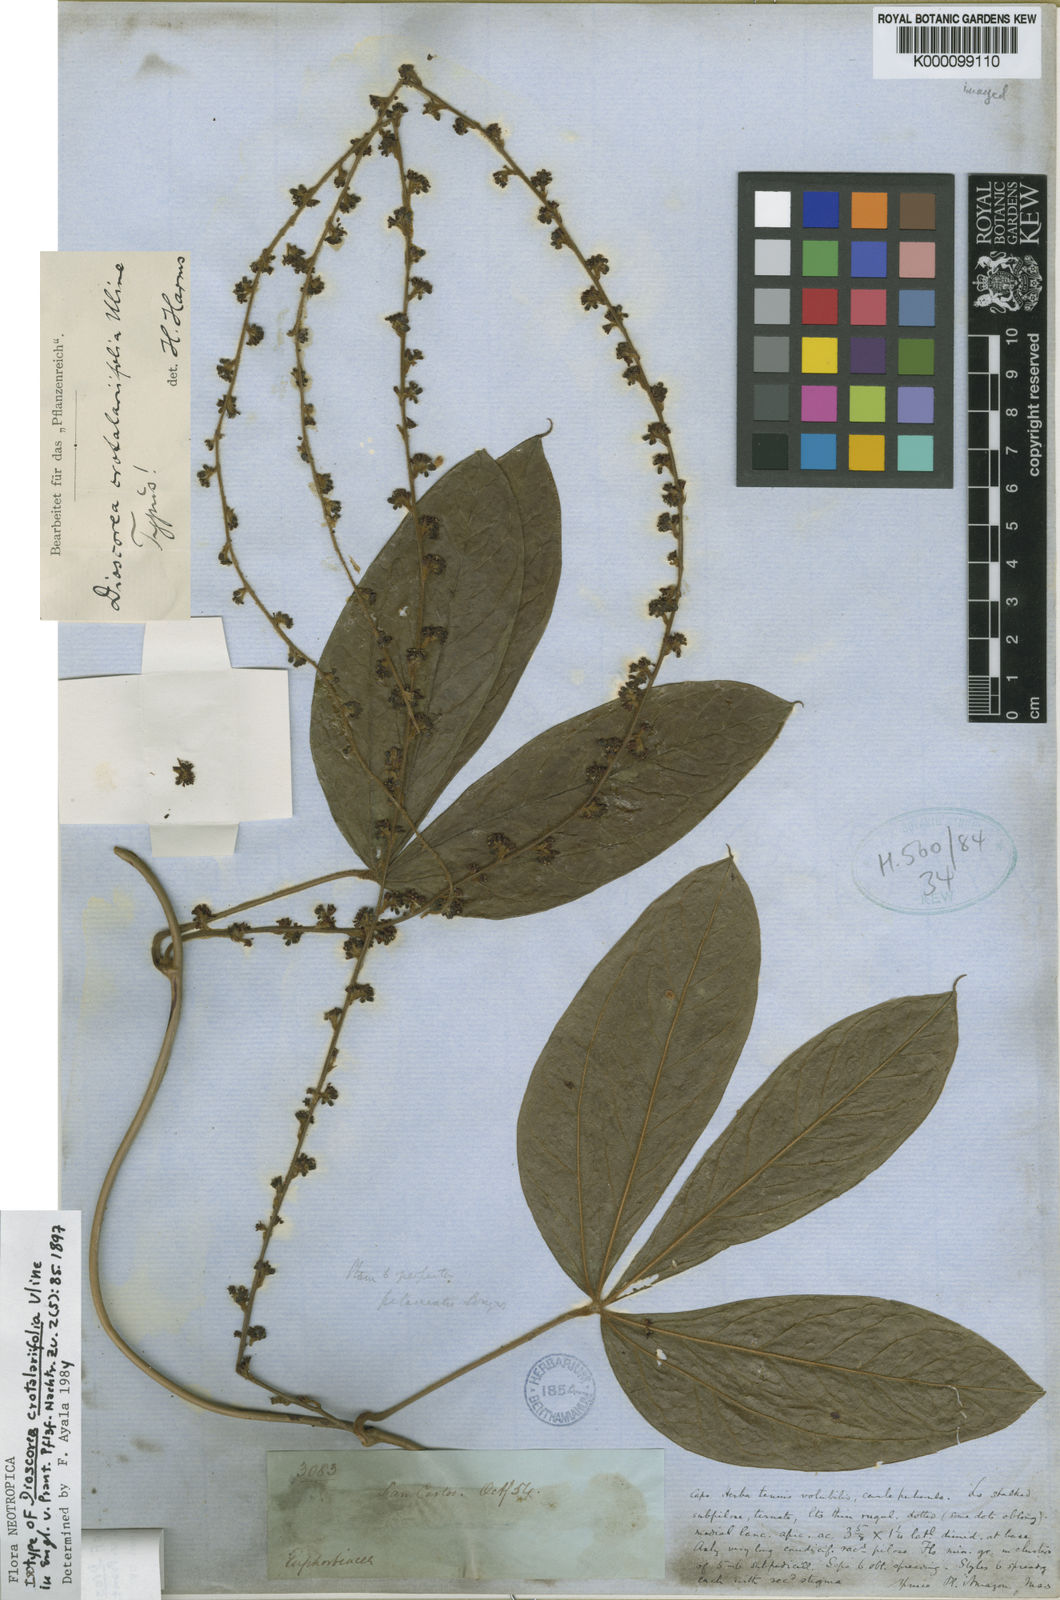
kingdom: Plantae
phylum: Tracheophyta
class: Liliopsida
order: Dioscoreales
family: Dioscoreaceae
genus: Dioscorea
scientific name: Dioscorea crotalariifolia
